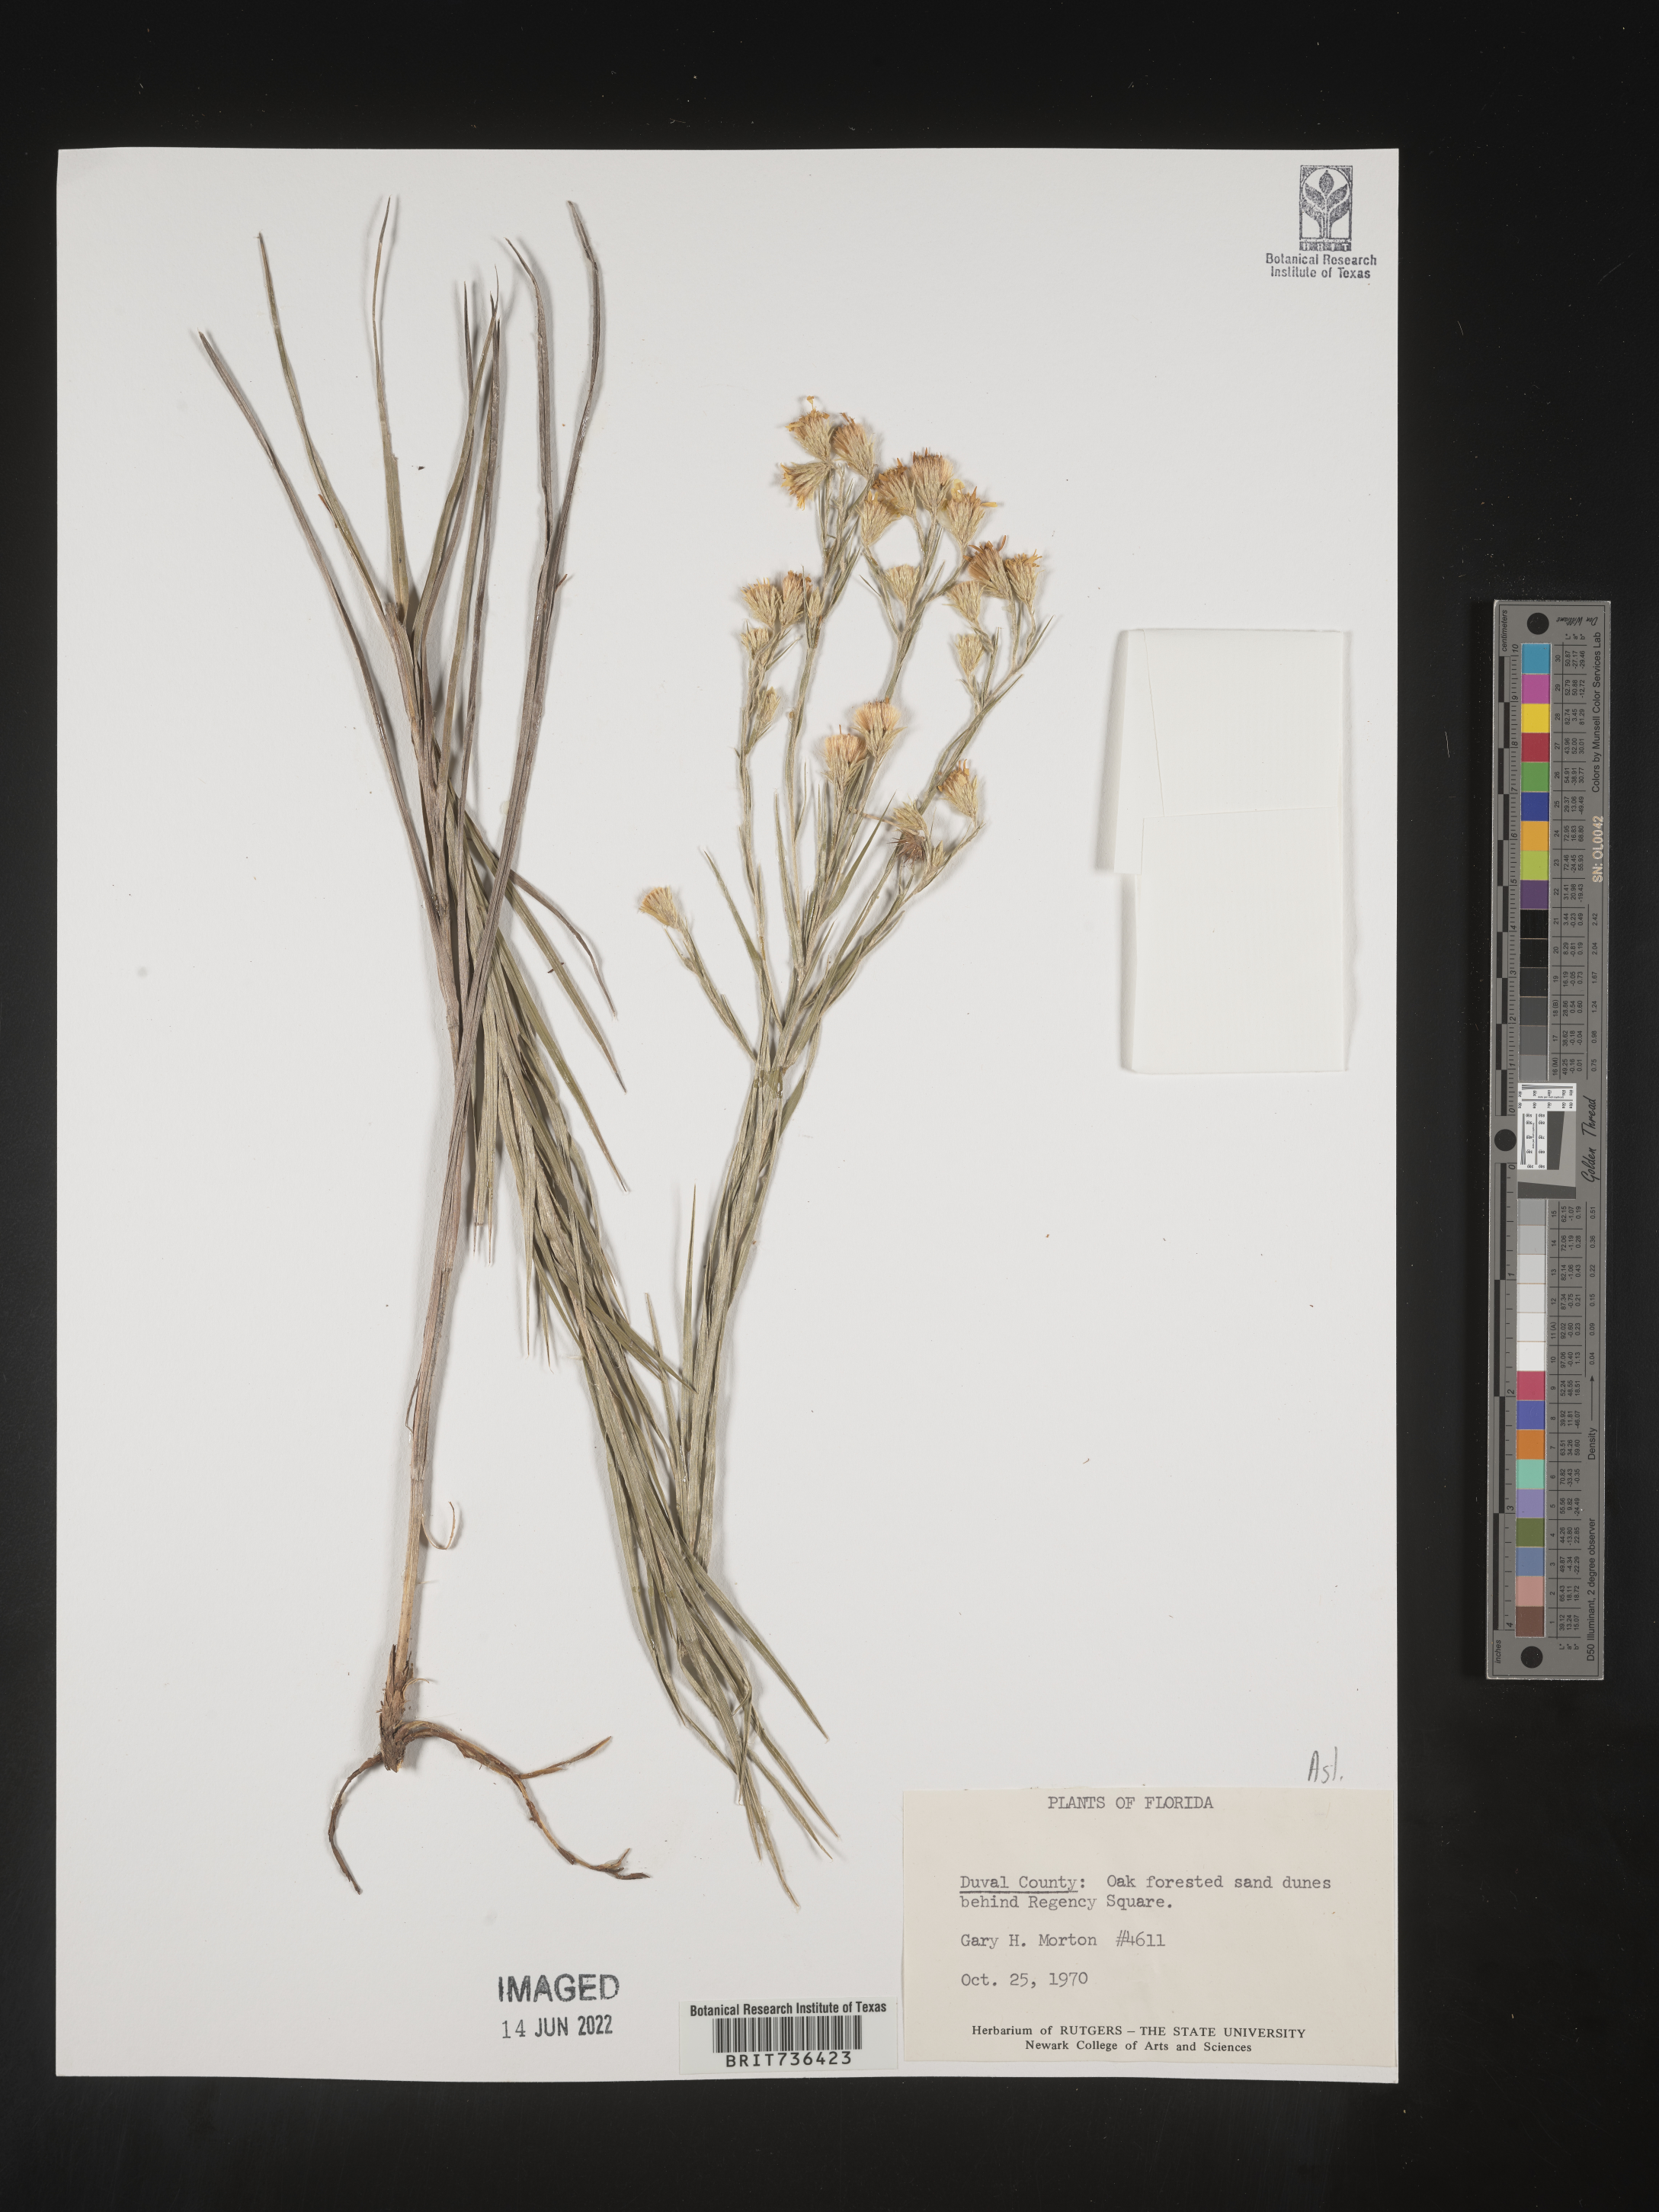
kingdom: Plantae
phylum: Tracheophyta
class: Magnoliopsida
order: Asterales
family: Asteraceae
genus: Pityopsis
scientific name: Pityopsis tracyi
